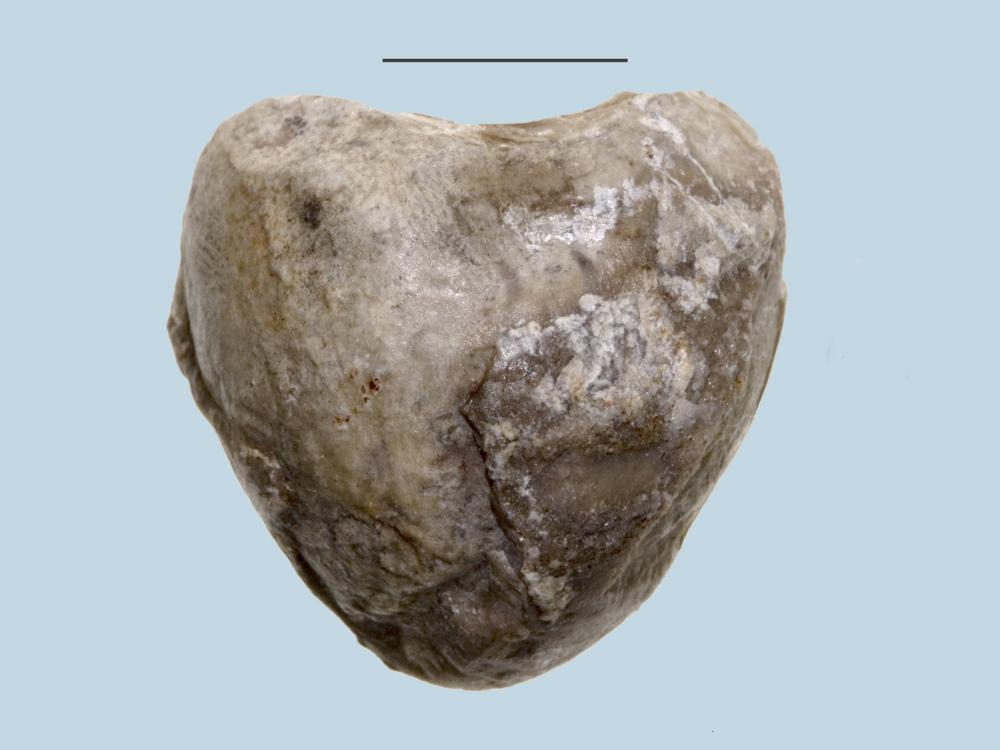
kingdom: Animalia
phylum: Brachiopoda
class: Rhynchonellata
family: Porambonitidae
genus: Porambonites
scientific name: Porambonites
